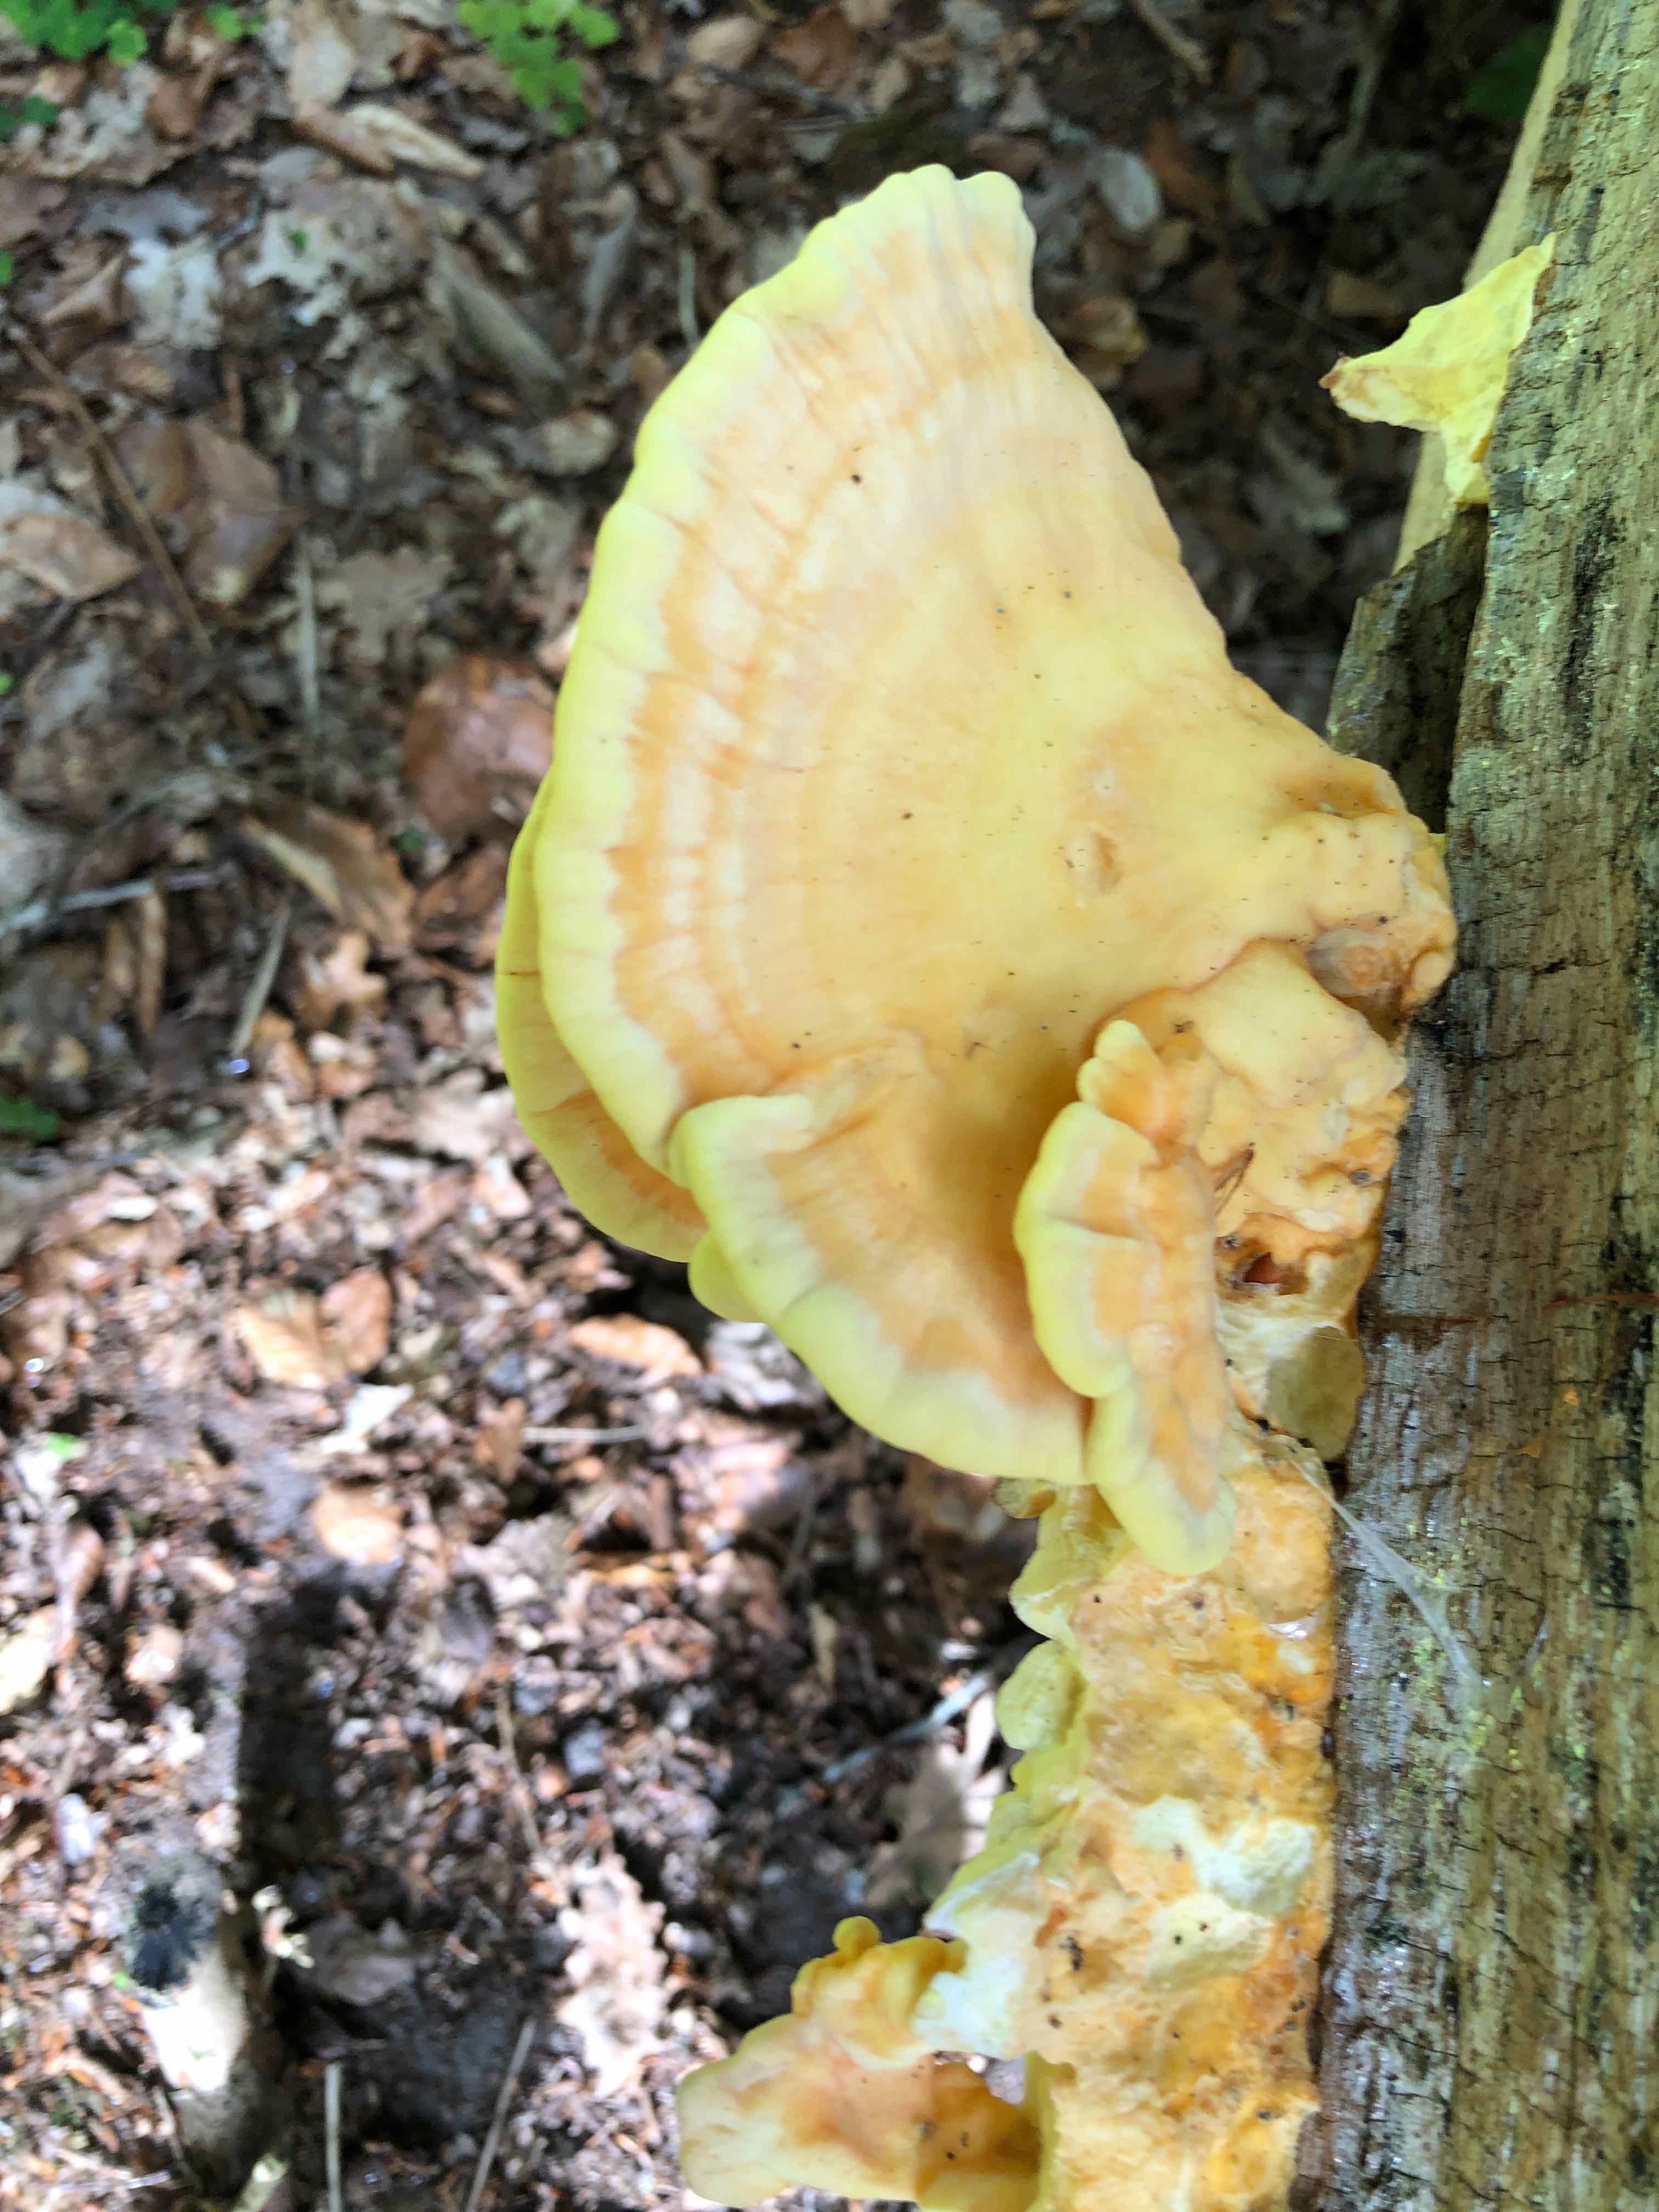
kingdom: Fungi
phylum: Basidiomycota
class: Agaricomycetes
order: Polyporales
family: Laetiporaceae
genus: Laetiporus
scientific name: Laetiporus sulphureus
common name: svovlporesvamp
